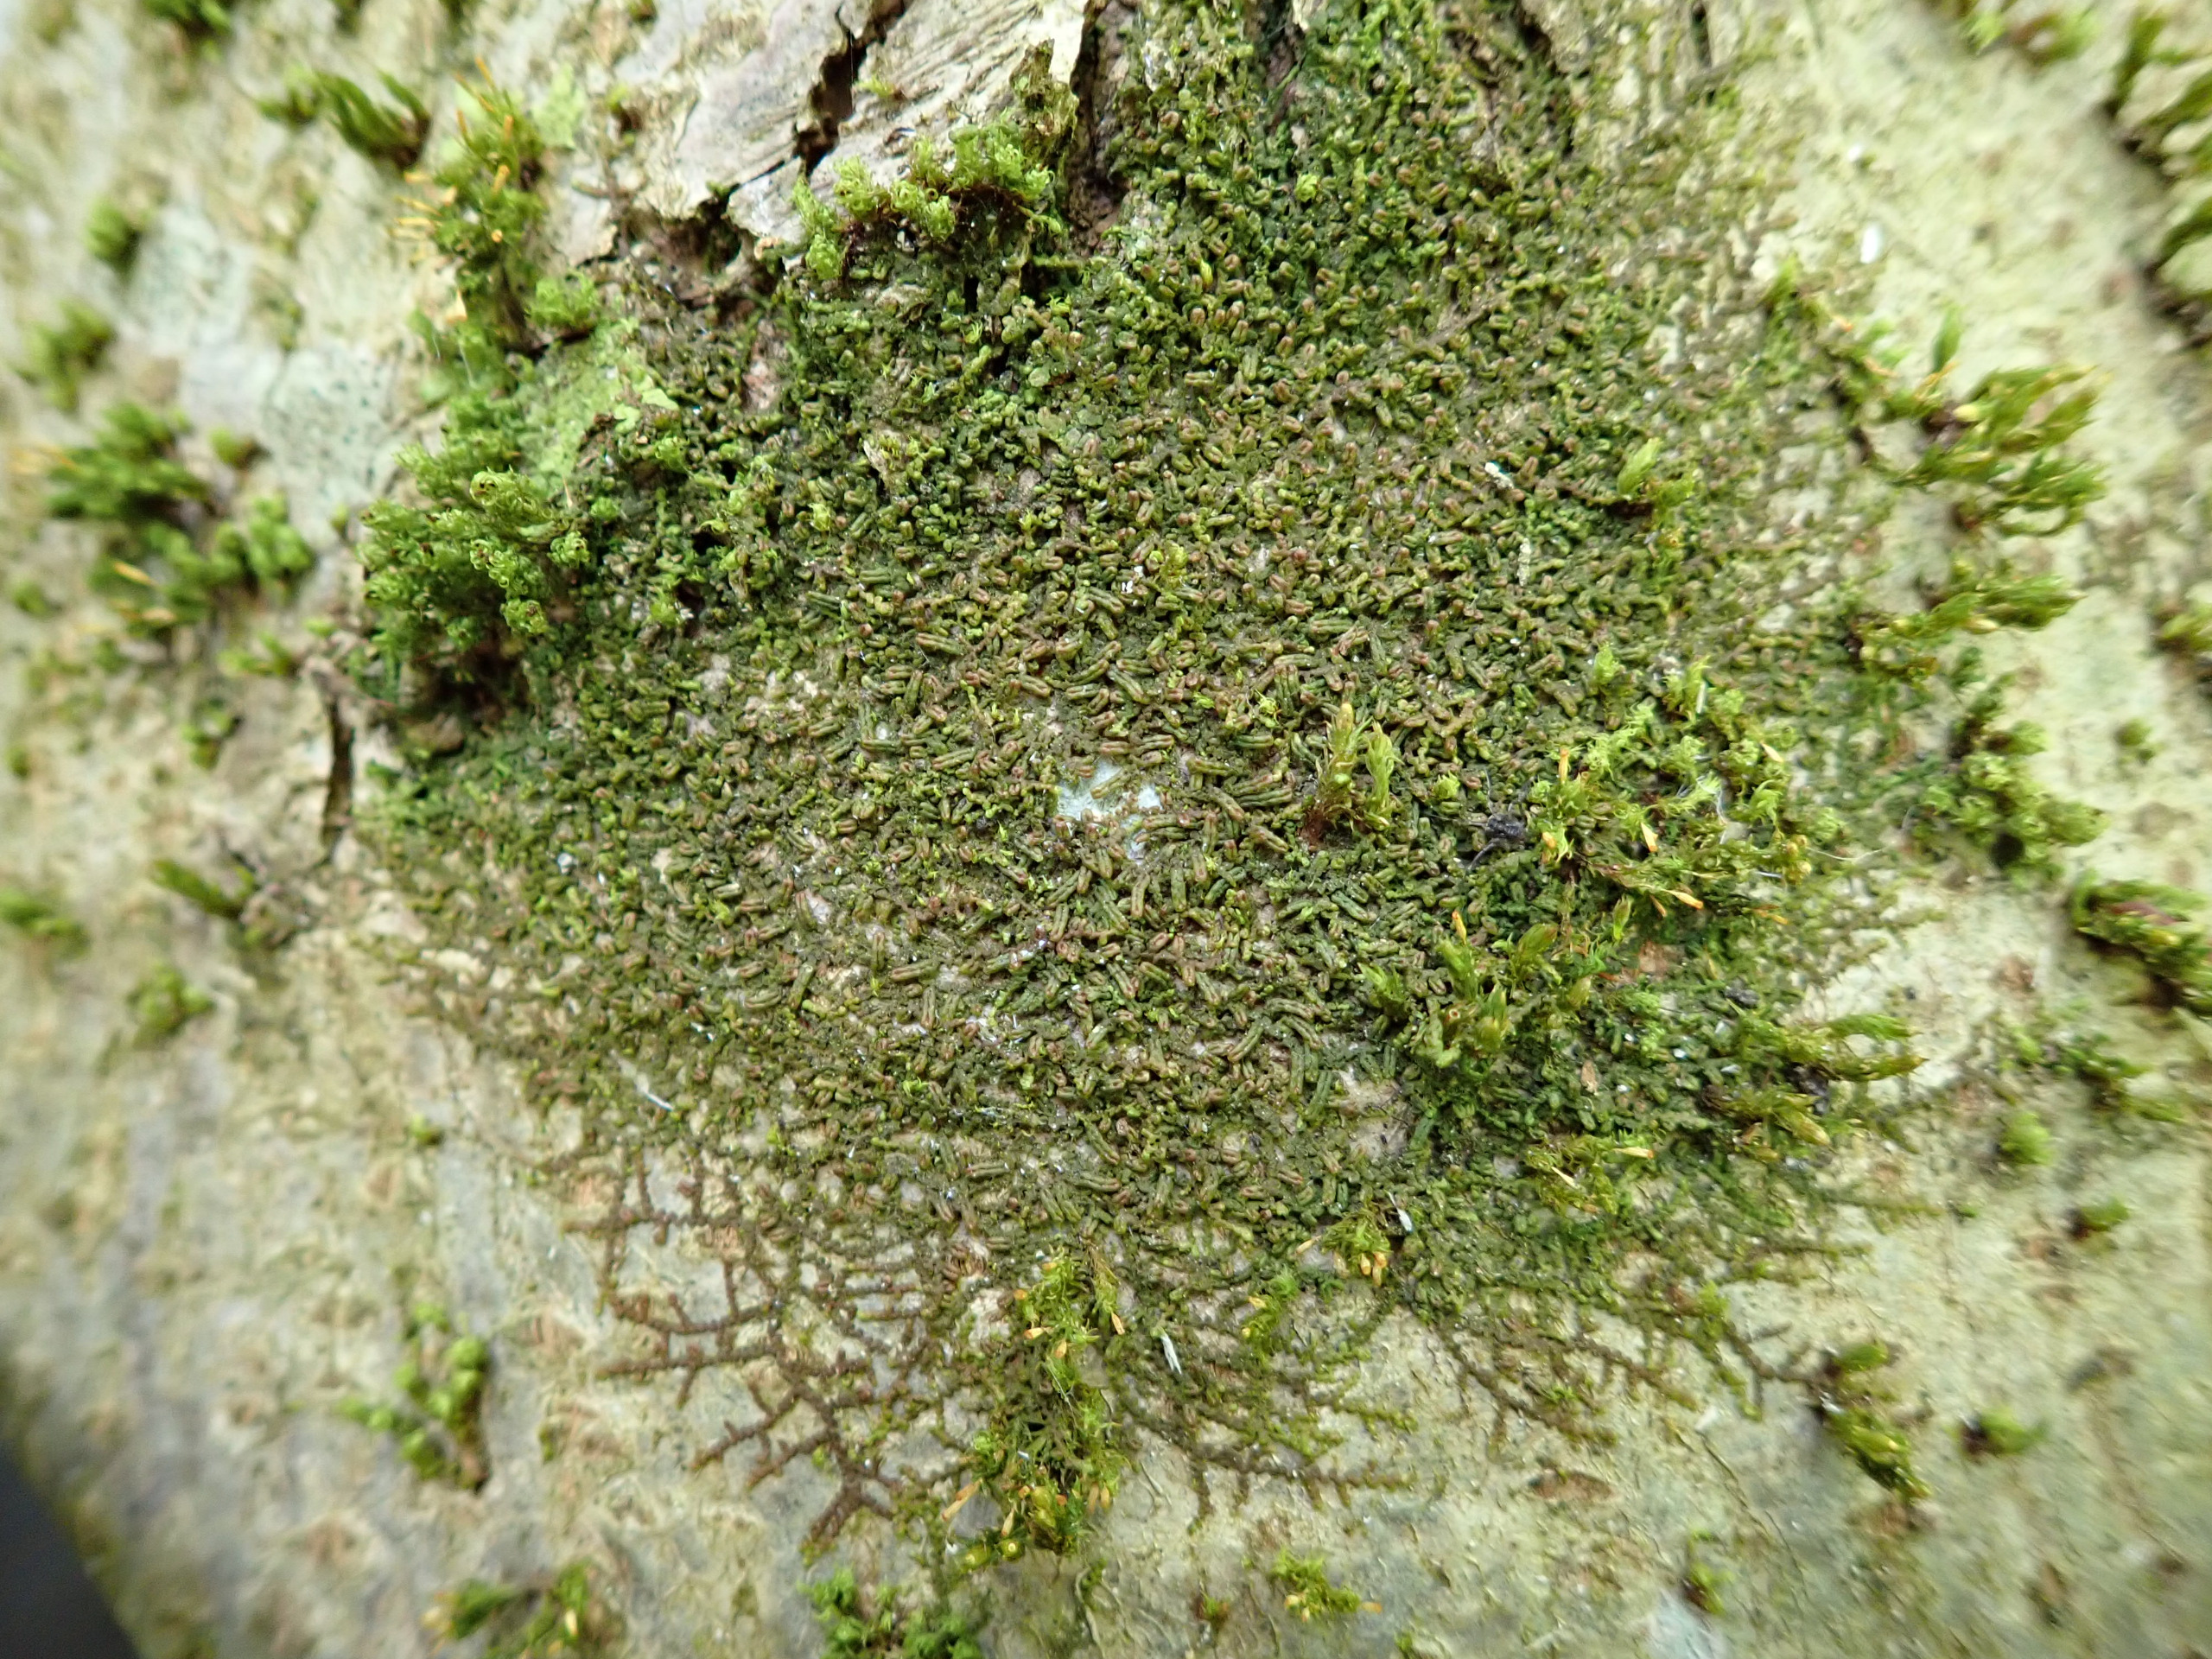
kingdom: Plantae
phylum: Marchantiophyta
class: Jungermanniopsida
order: Porellales
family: Frullaniaceae
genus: Frullania
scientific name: Frullania dilatata
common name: Mat bronzemos
